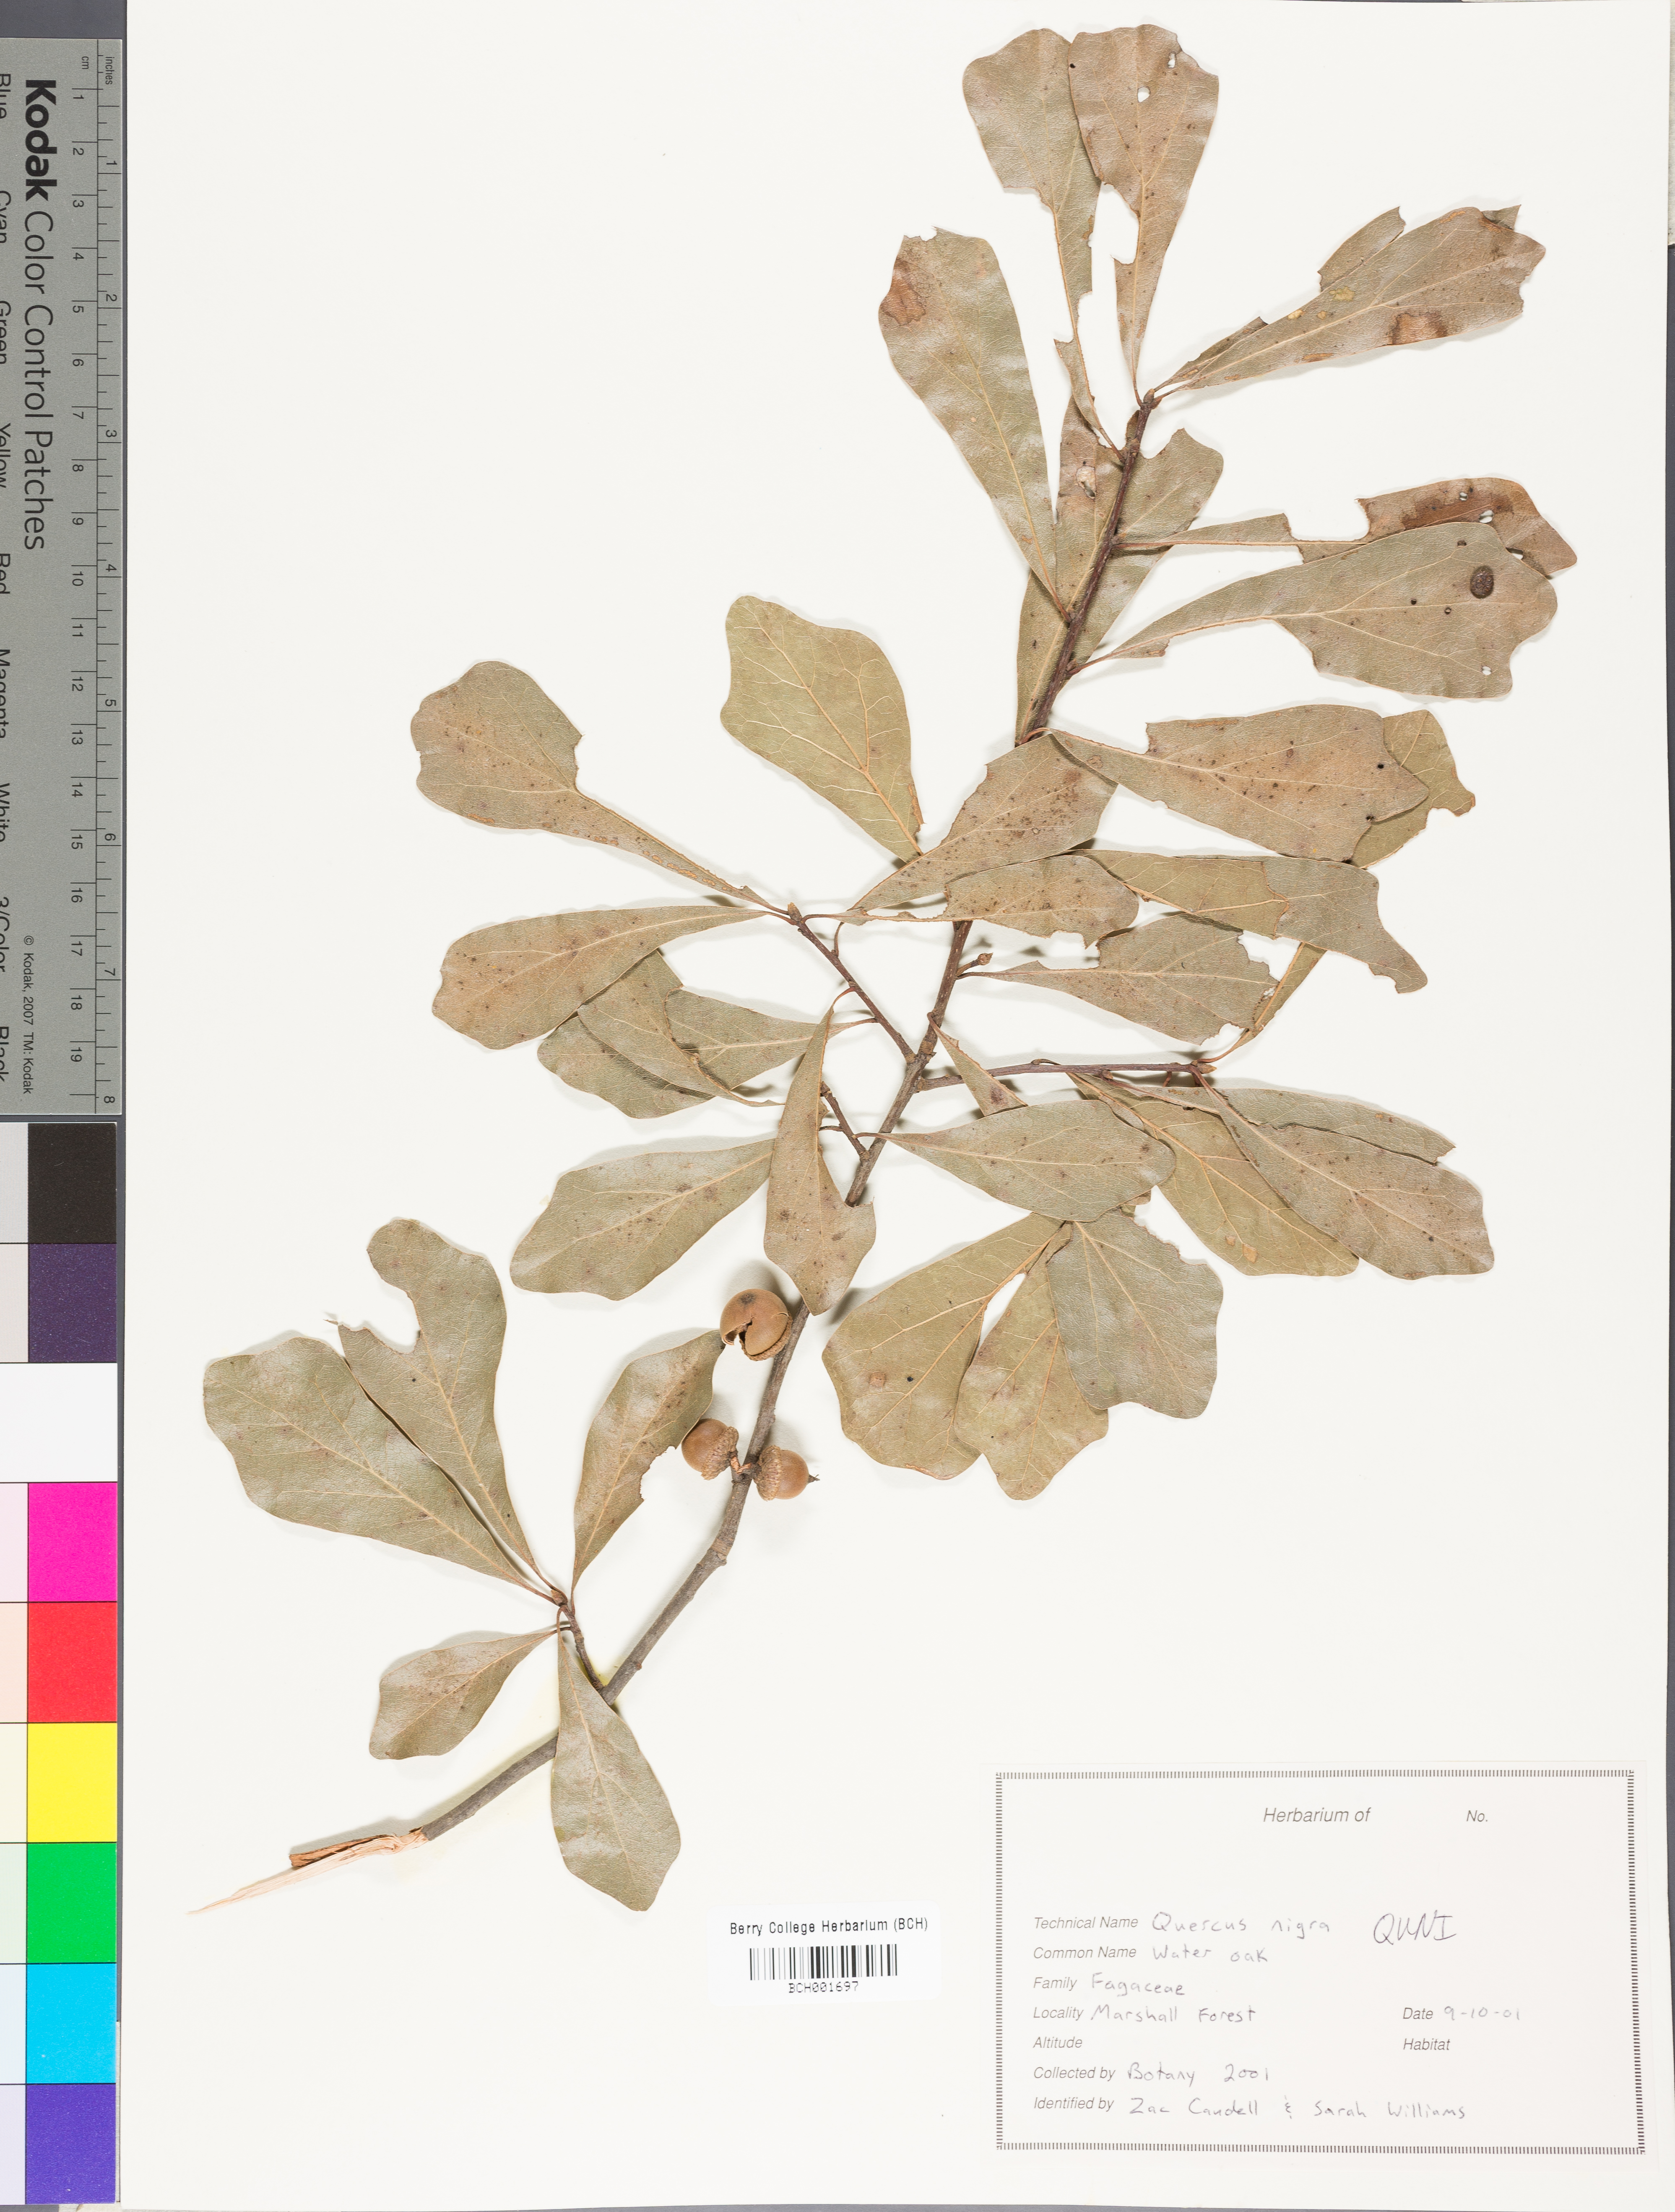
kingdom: Plantae
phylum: Tracheophyta
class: Magnoliopsida
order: Fagales
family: Fagaceae
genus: Quercus
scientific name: Quercus nigra
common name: Water oak
